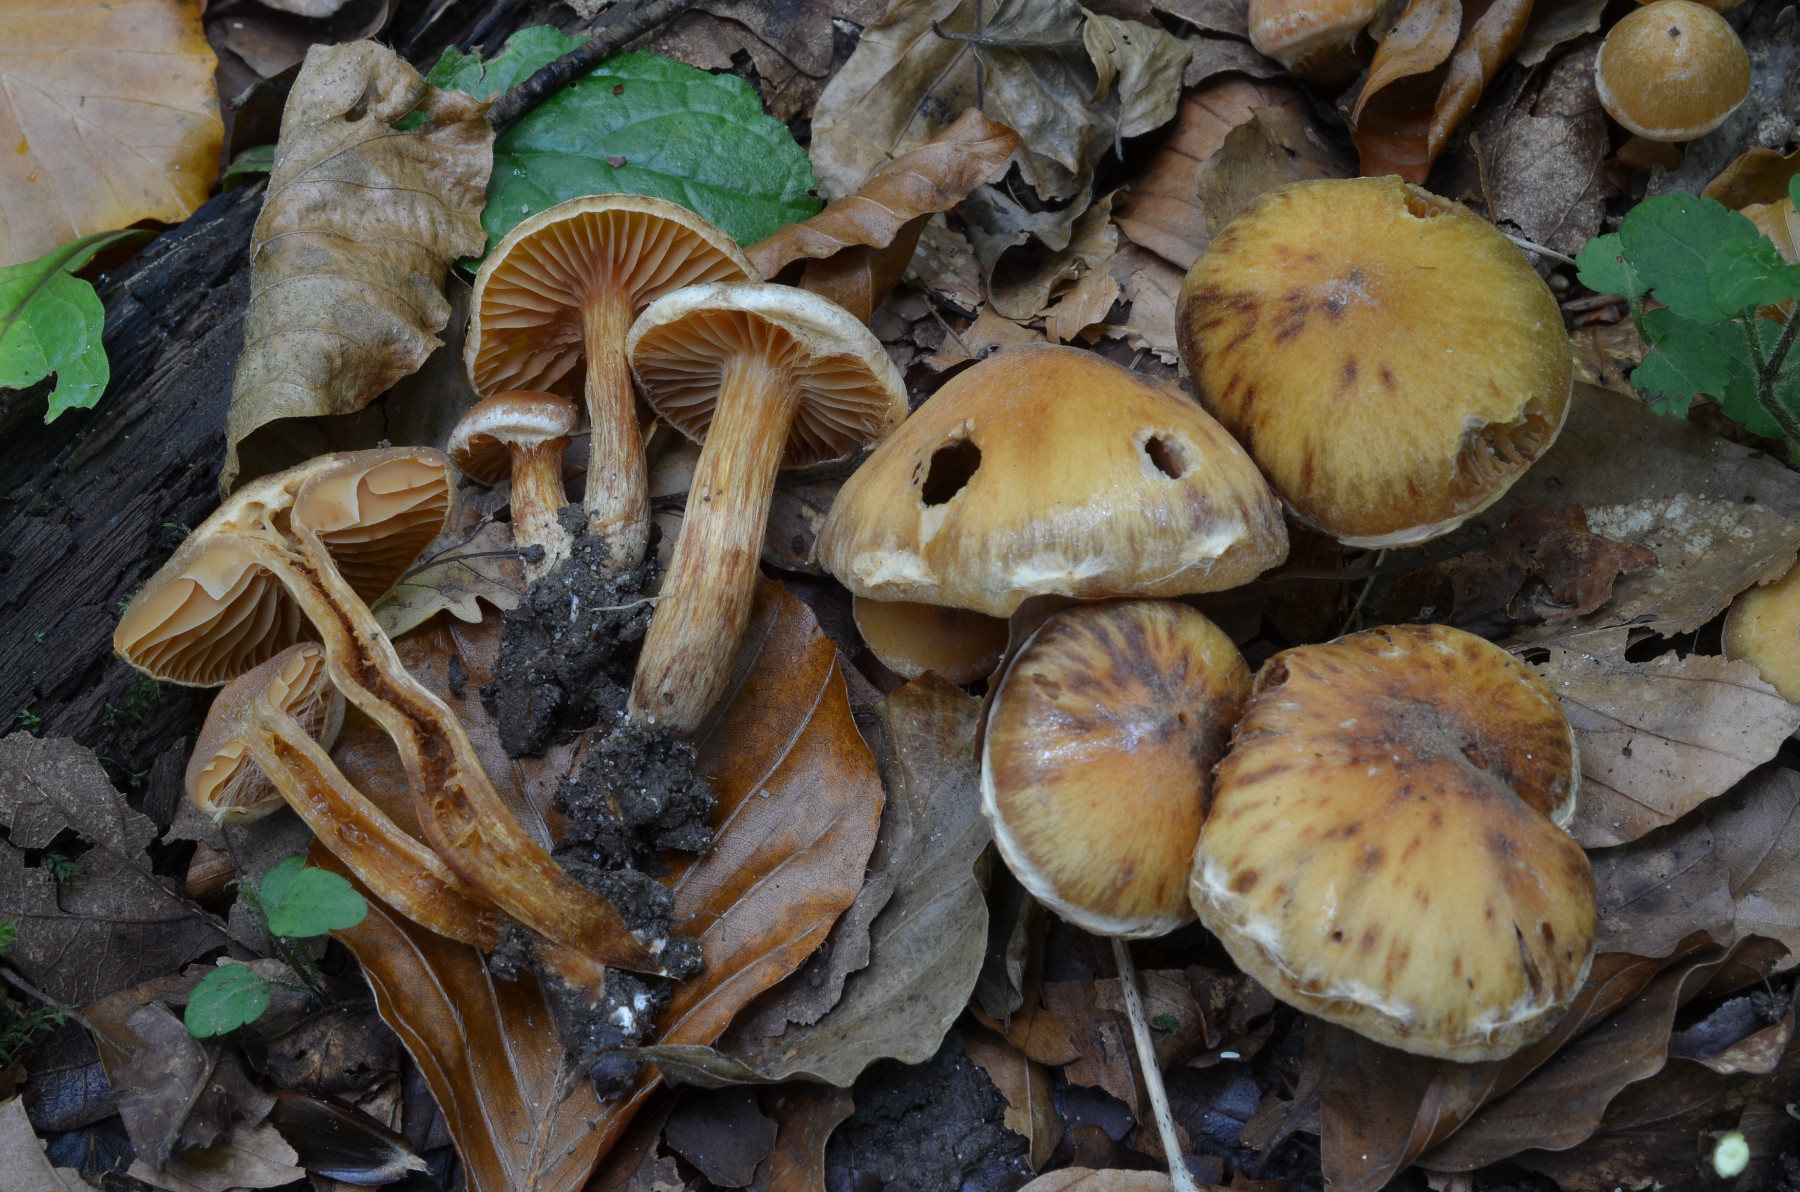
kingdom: Fungi
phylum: Basidiomycota
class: Agaricomycetes
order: Agaricales
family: Cortinariaceae
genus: Cortinarius
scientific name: Cortinarius roseonudipes
